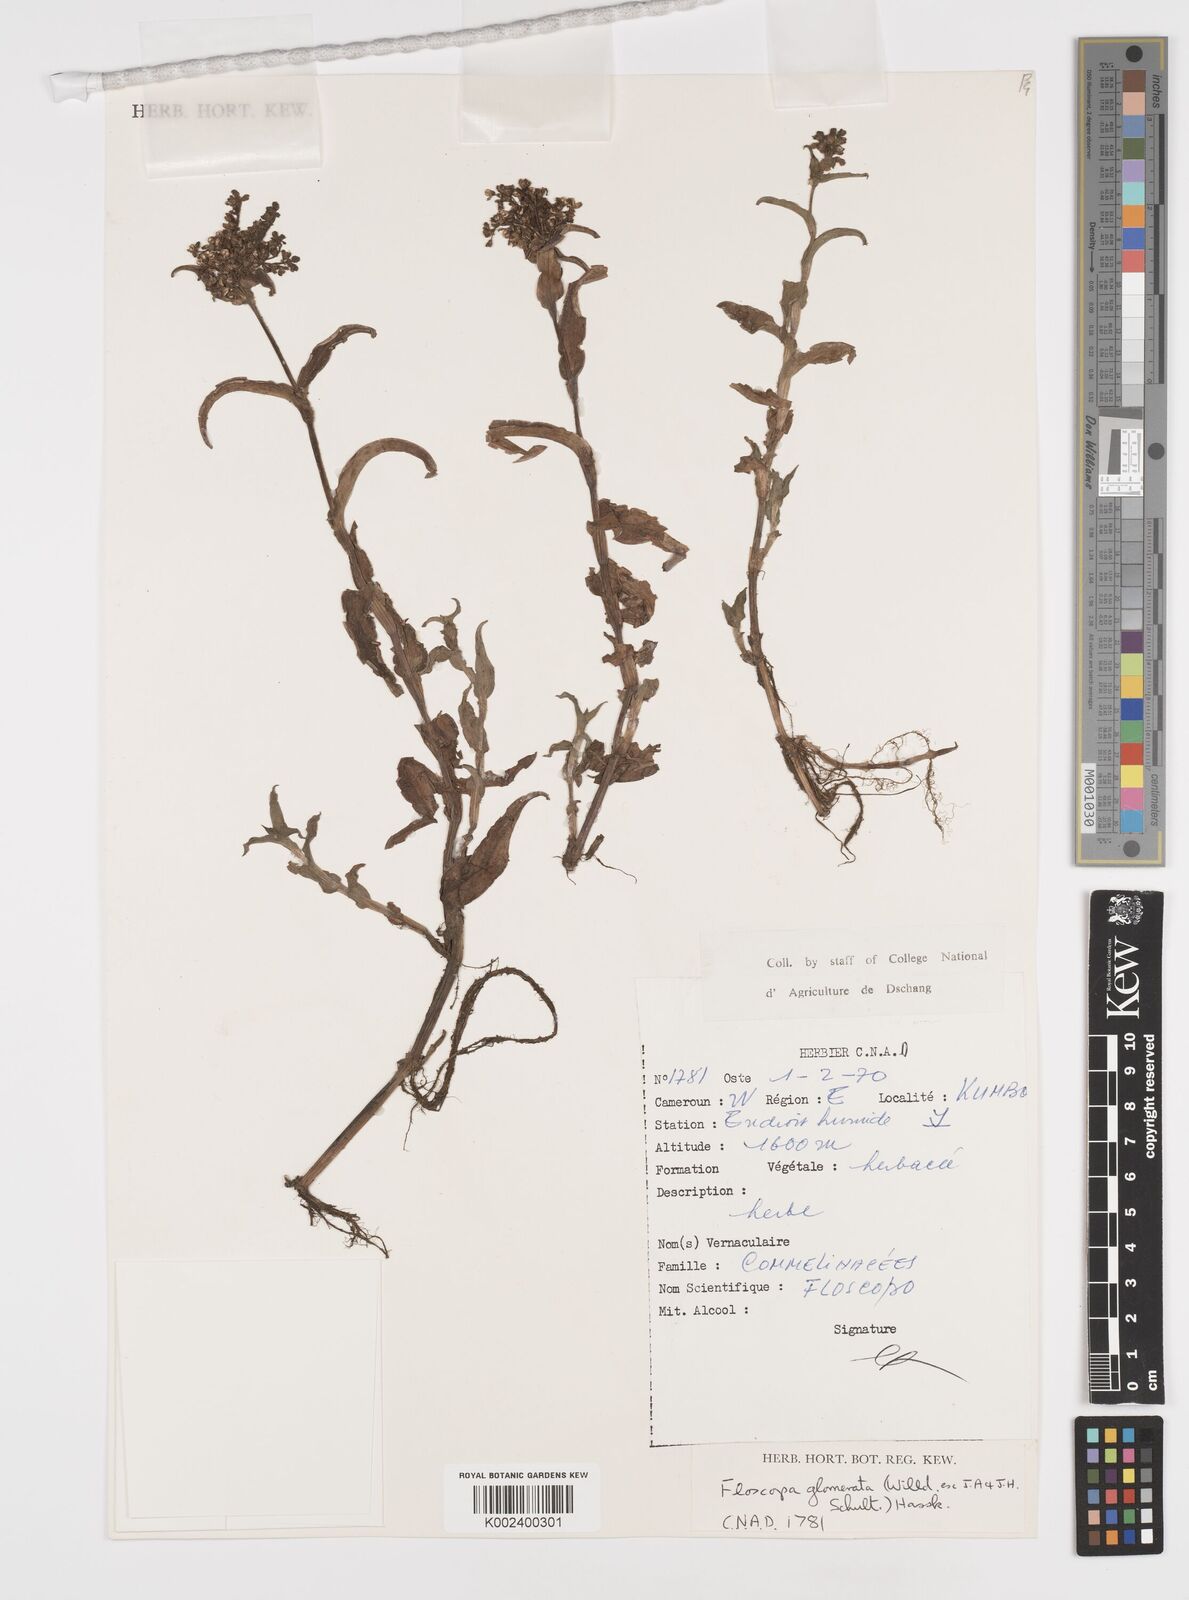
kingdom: Plantae
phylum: Tracheophyta
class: Liliopsida
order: Commelinales
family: Commelinaceae
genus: Floscopa
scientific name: Floscopa glomerata
